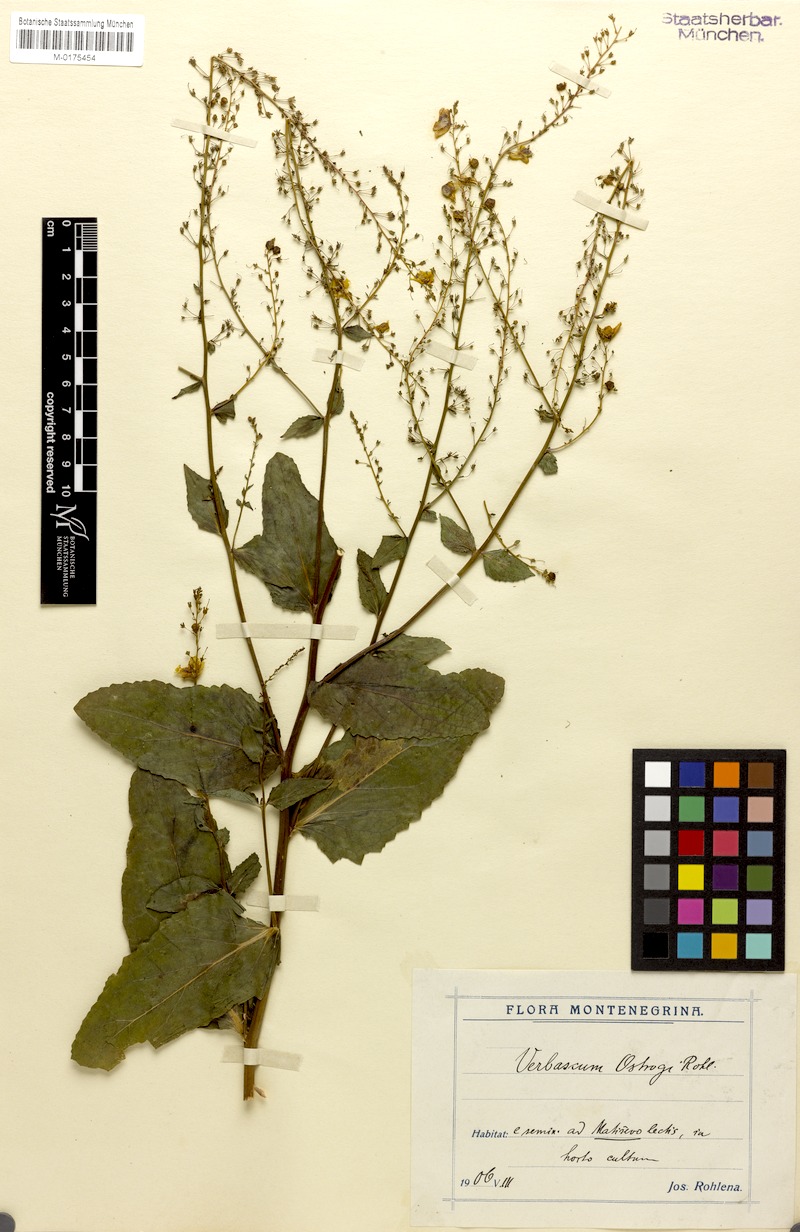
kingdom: Plantae
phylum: Tracheophyta
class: Magnoliopsida
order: Lamiales
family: Scrophulariaceae
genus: Verbascum
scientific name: Verbascum glabratum
